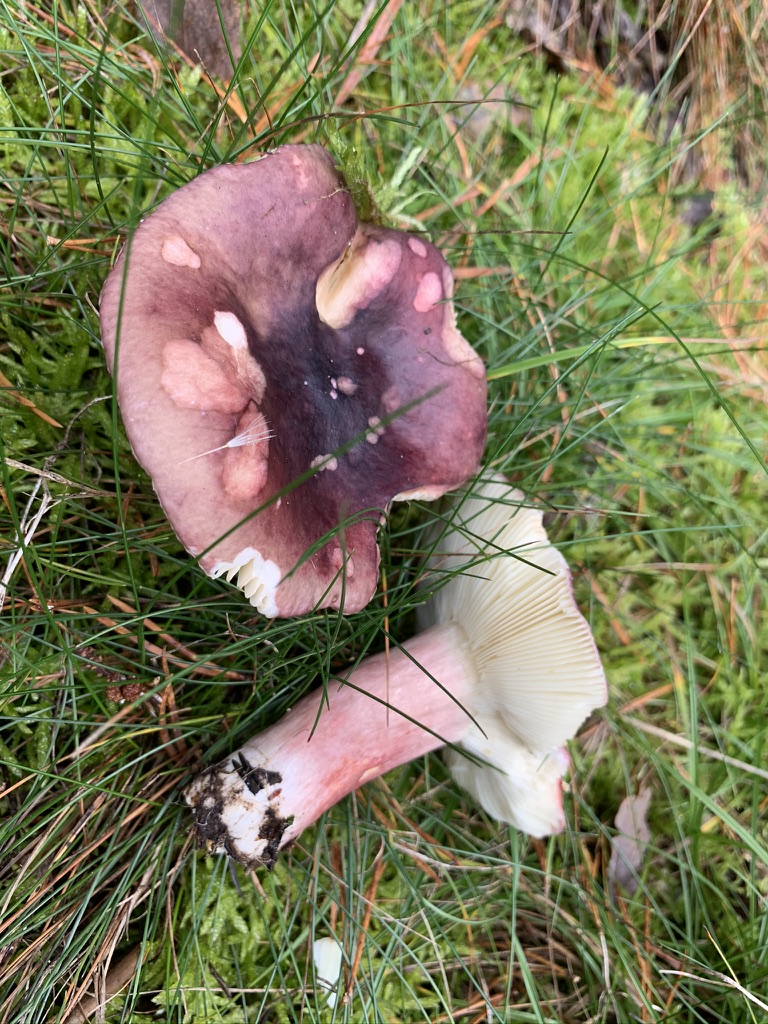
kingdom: Fungi
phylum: Basidiomycota
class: Agaricomycetes
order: Russulales
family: Russulaceae
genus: Russula
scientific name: Russula sardonia
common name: citronbladet skørhat
